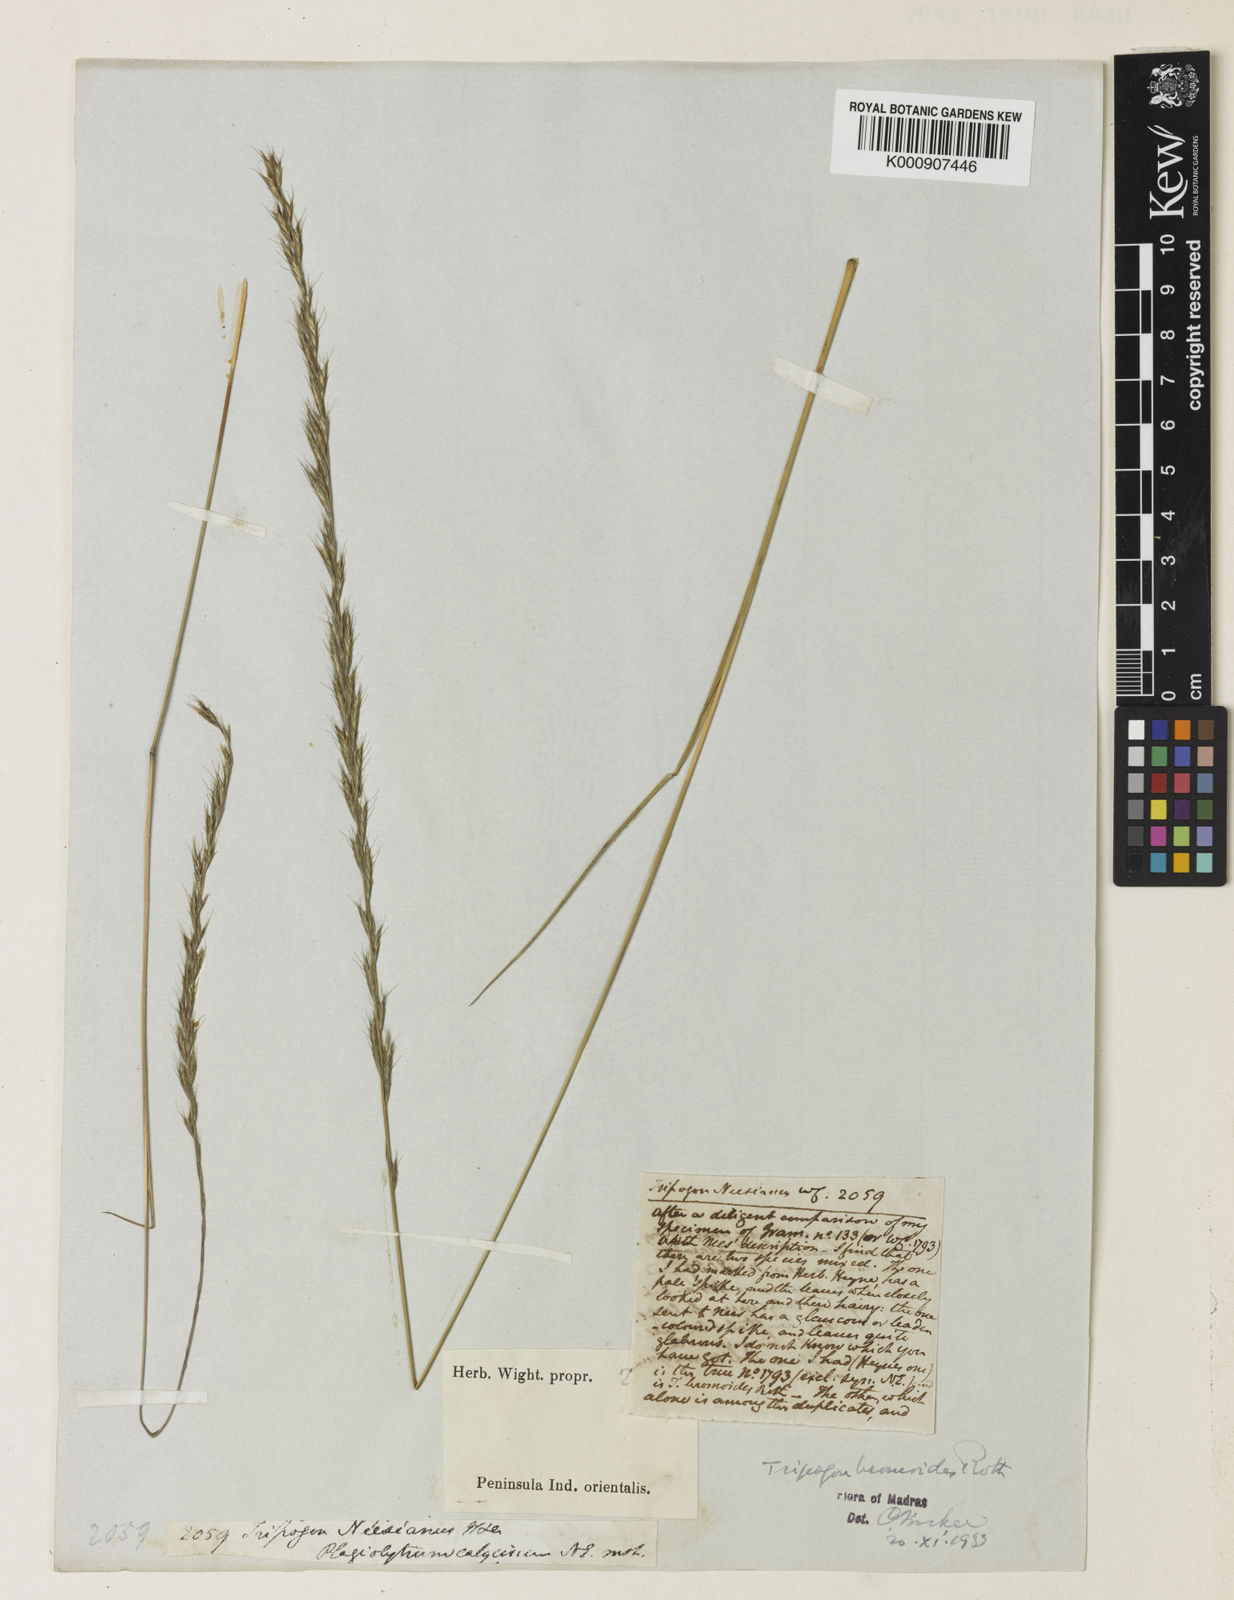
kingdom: Plantae
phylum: Tracheophyta
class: Liliopsida
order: Poales
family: Poaceae
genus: Tripogon
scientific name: Tripogon
